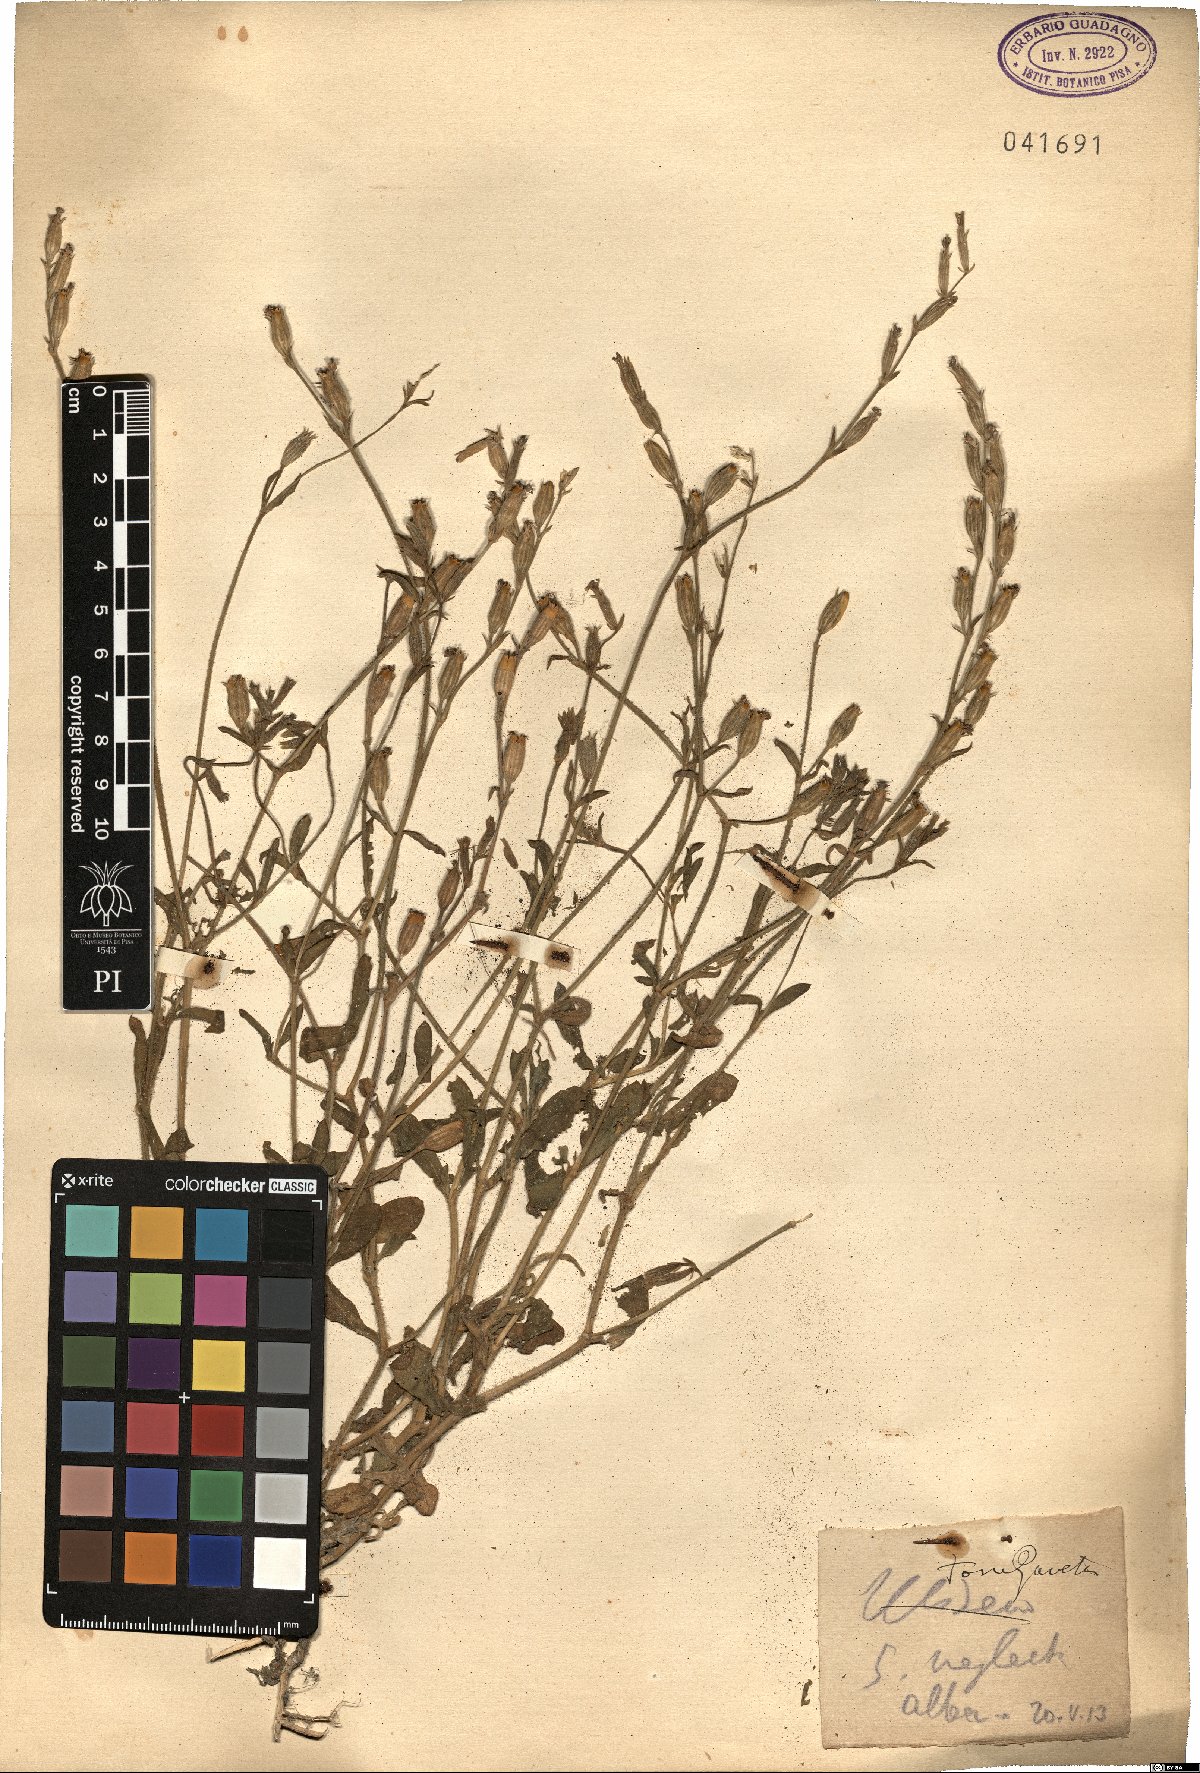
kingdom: Plantae
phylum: Tracheophyta
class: Magnoliopsida
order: Caryophyllales
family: Caryophyllaceae
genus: Silene
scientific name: Silene neglecta
